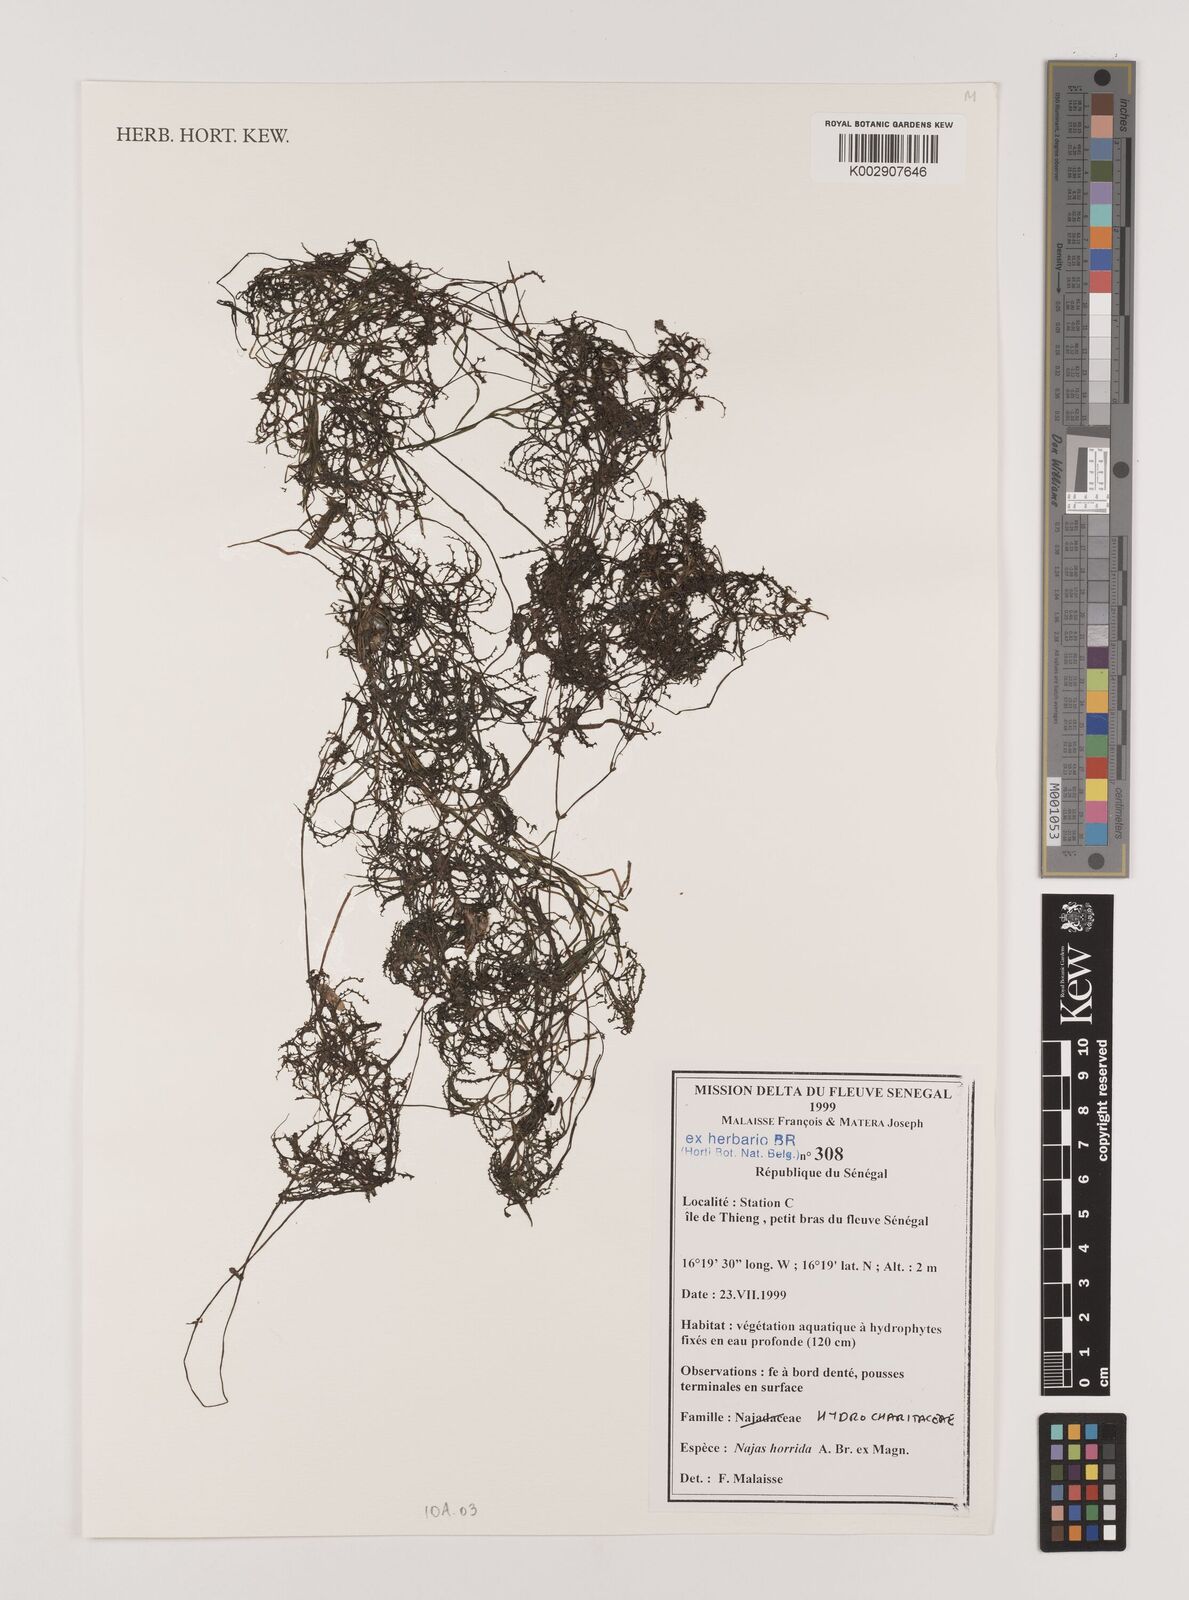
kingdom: Plantae
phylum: Tracheophyta
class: Liliopsida
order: Alismatales
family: Hydrocharitaceae
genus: Najas
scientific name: Najas horrida
